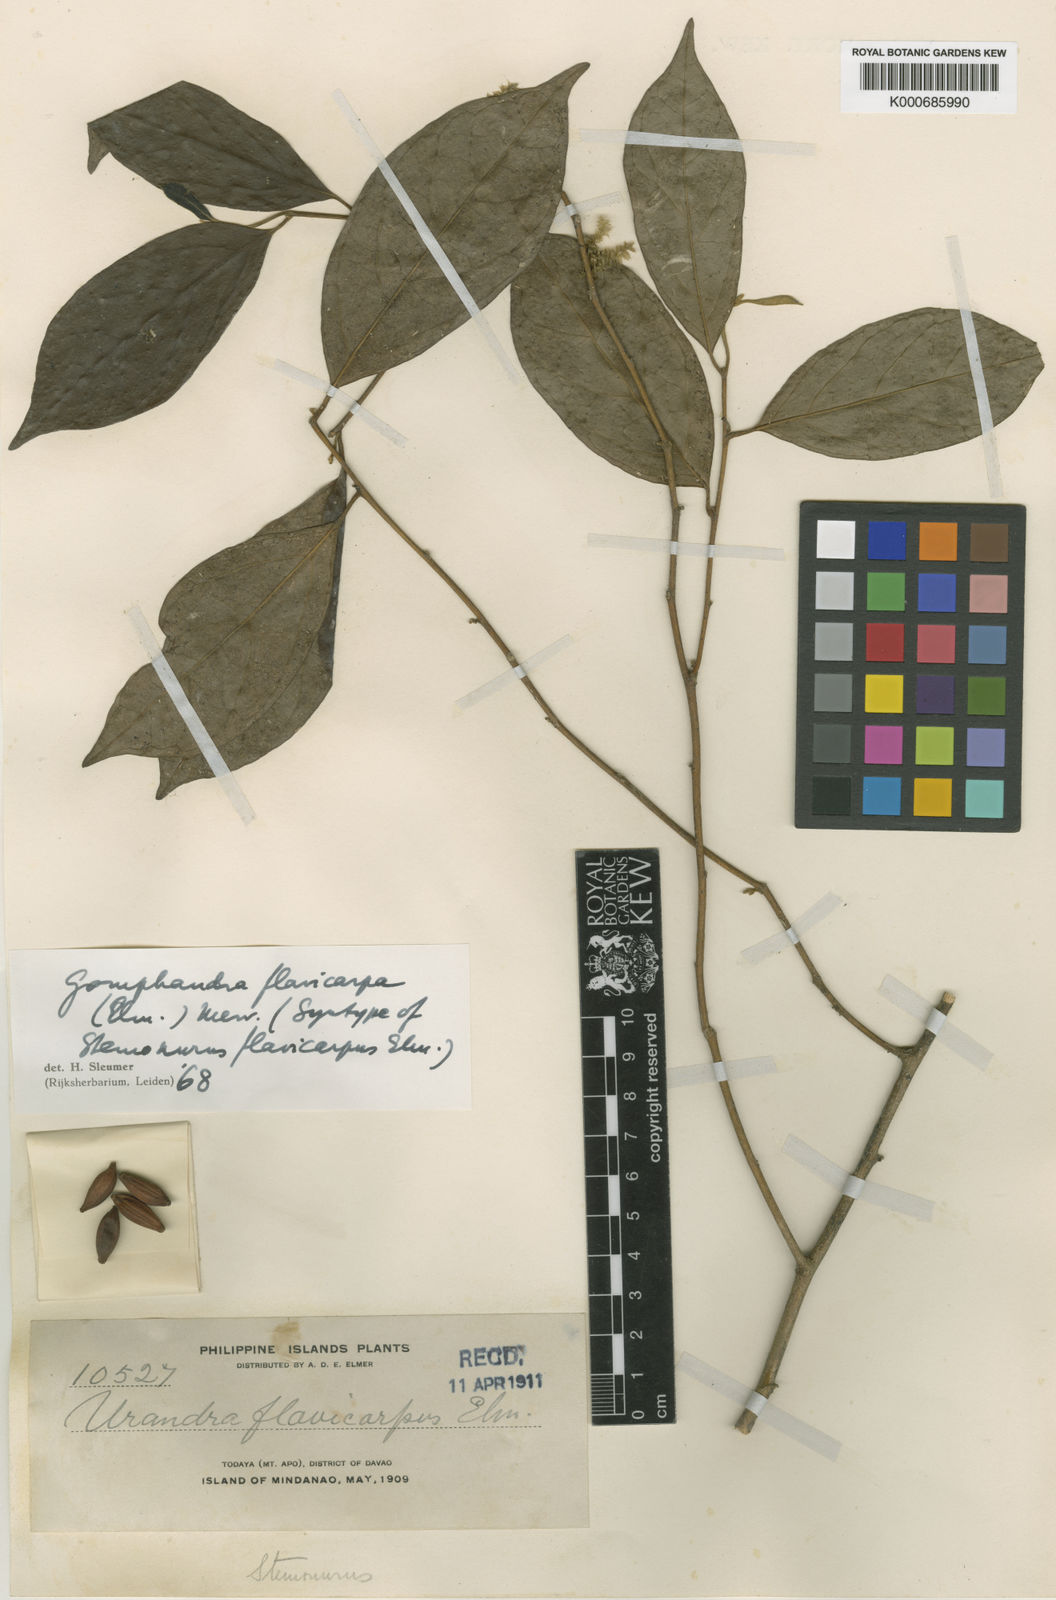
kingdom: Plantae
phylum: Tracheophyta
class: Magnoliopsida
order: Cardiopteridales
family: Stemonuraceae
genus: Gomphandra
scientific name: Gomphandra flavicarpa
